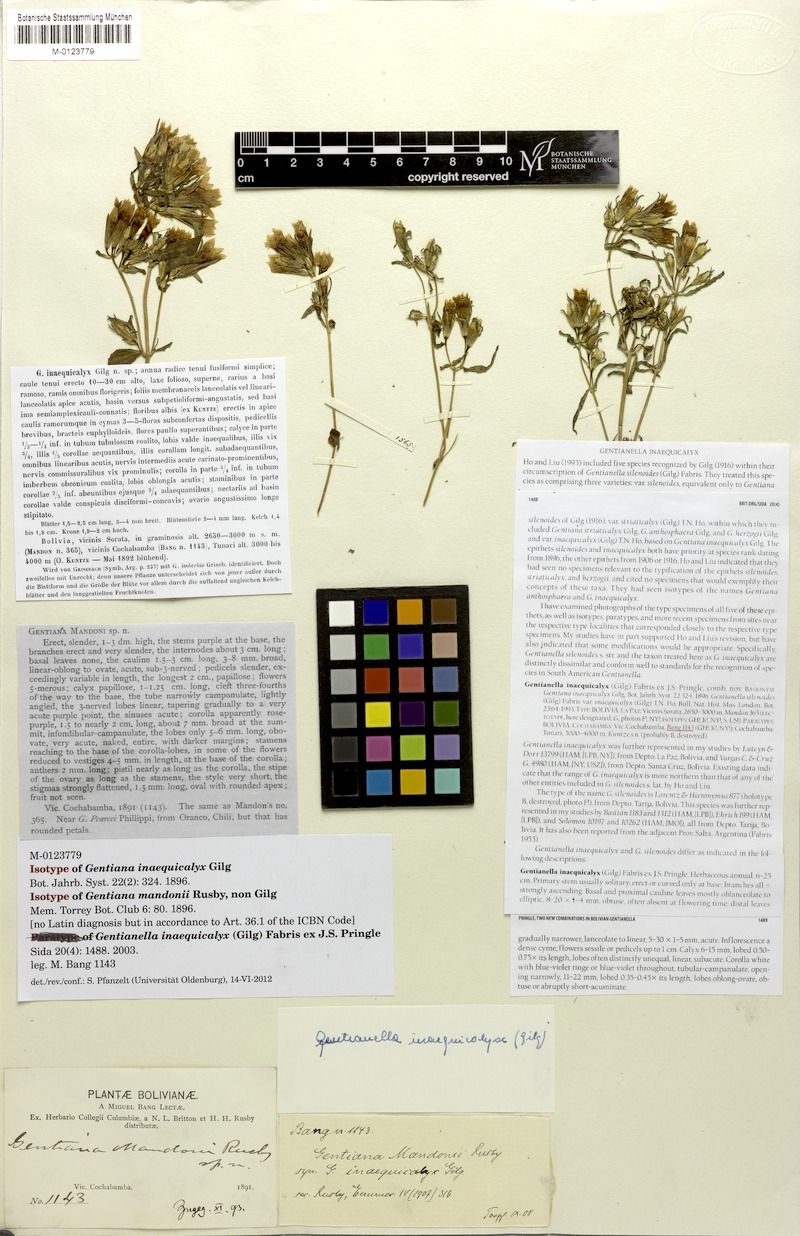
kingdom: Plantae
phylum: Tracheophyta
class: Magnoliopsida
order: Gentianales
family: Gentianaceae
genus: Gentianella
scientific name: Gentianella inaequicalyx
